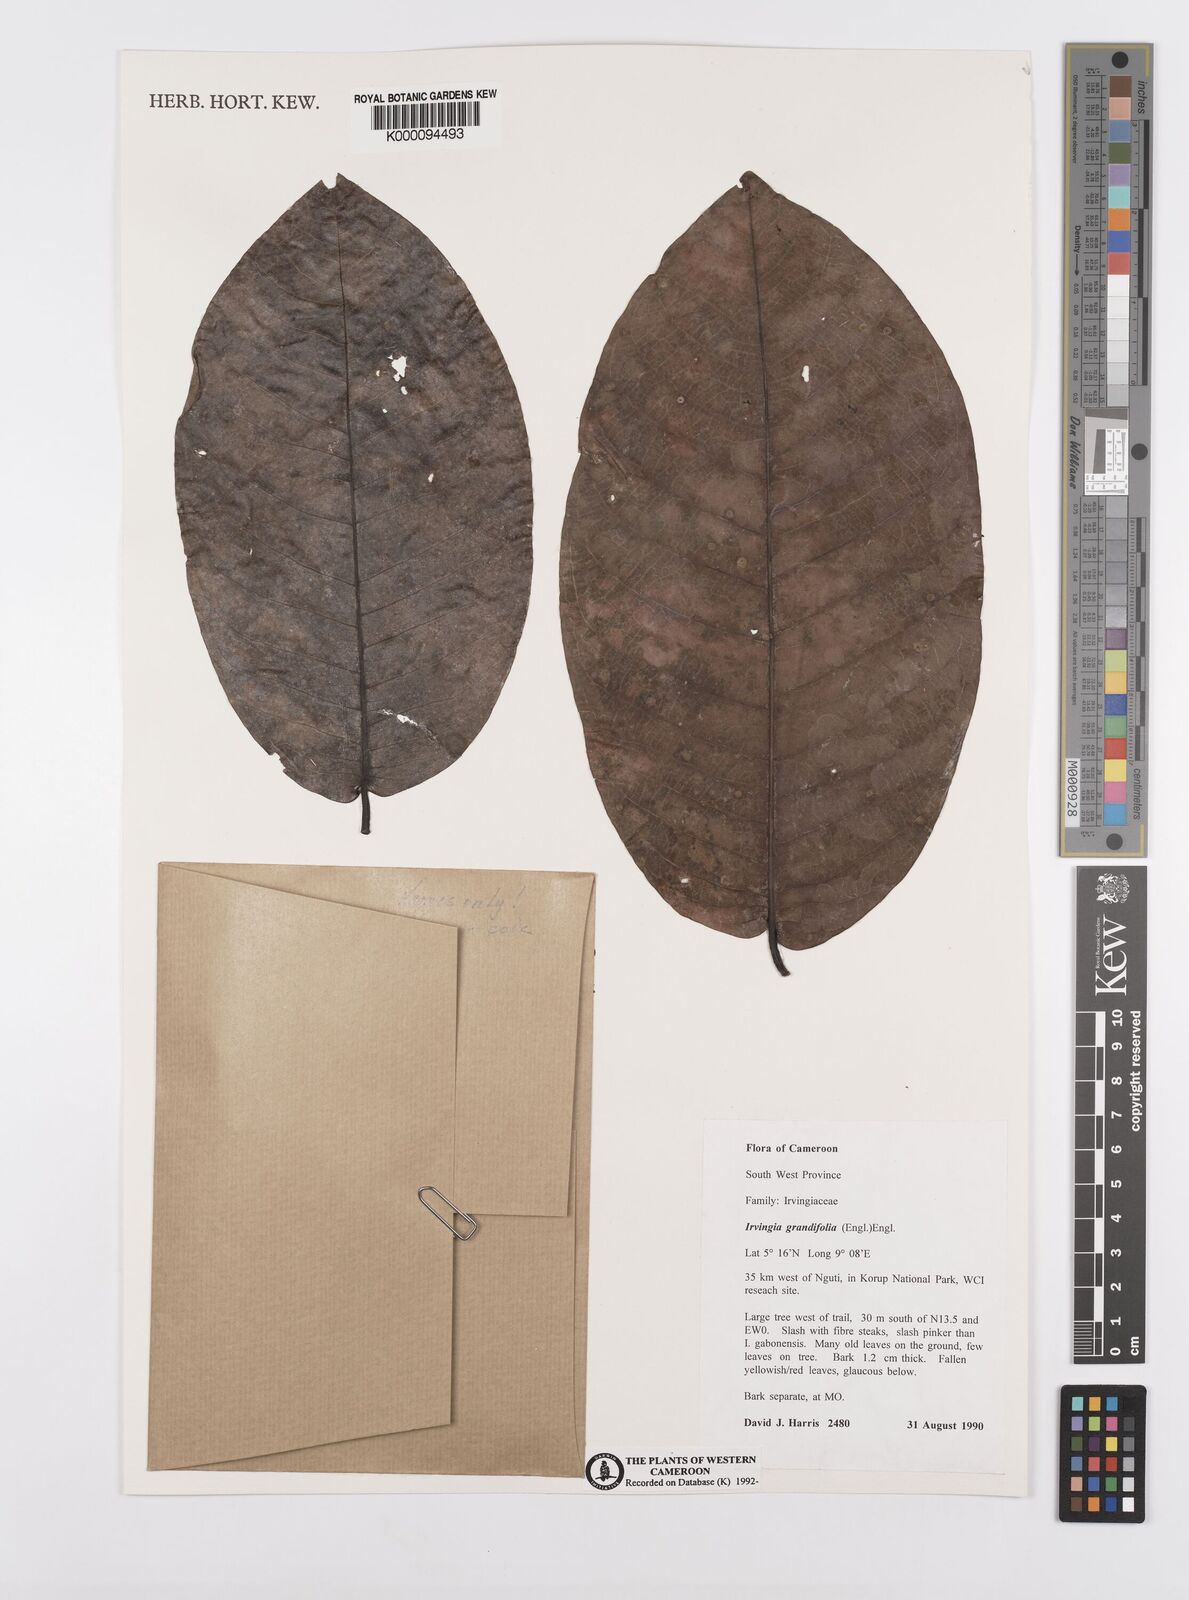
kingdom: Plantae
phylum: Tracheophyta
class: Magnoliopsida
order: Malpighiales
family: Irvingiaceae
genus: Irvingia
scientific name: Irvingia grandifolia
